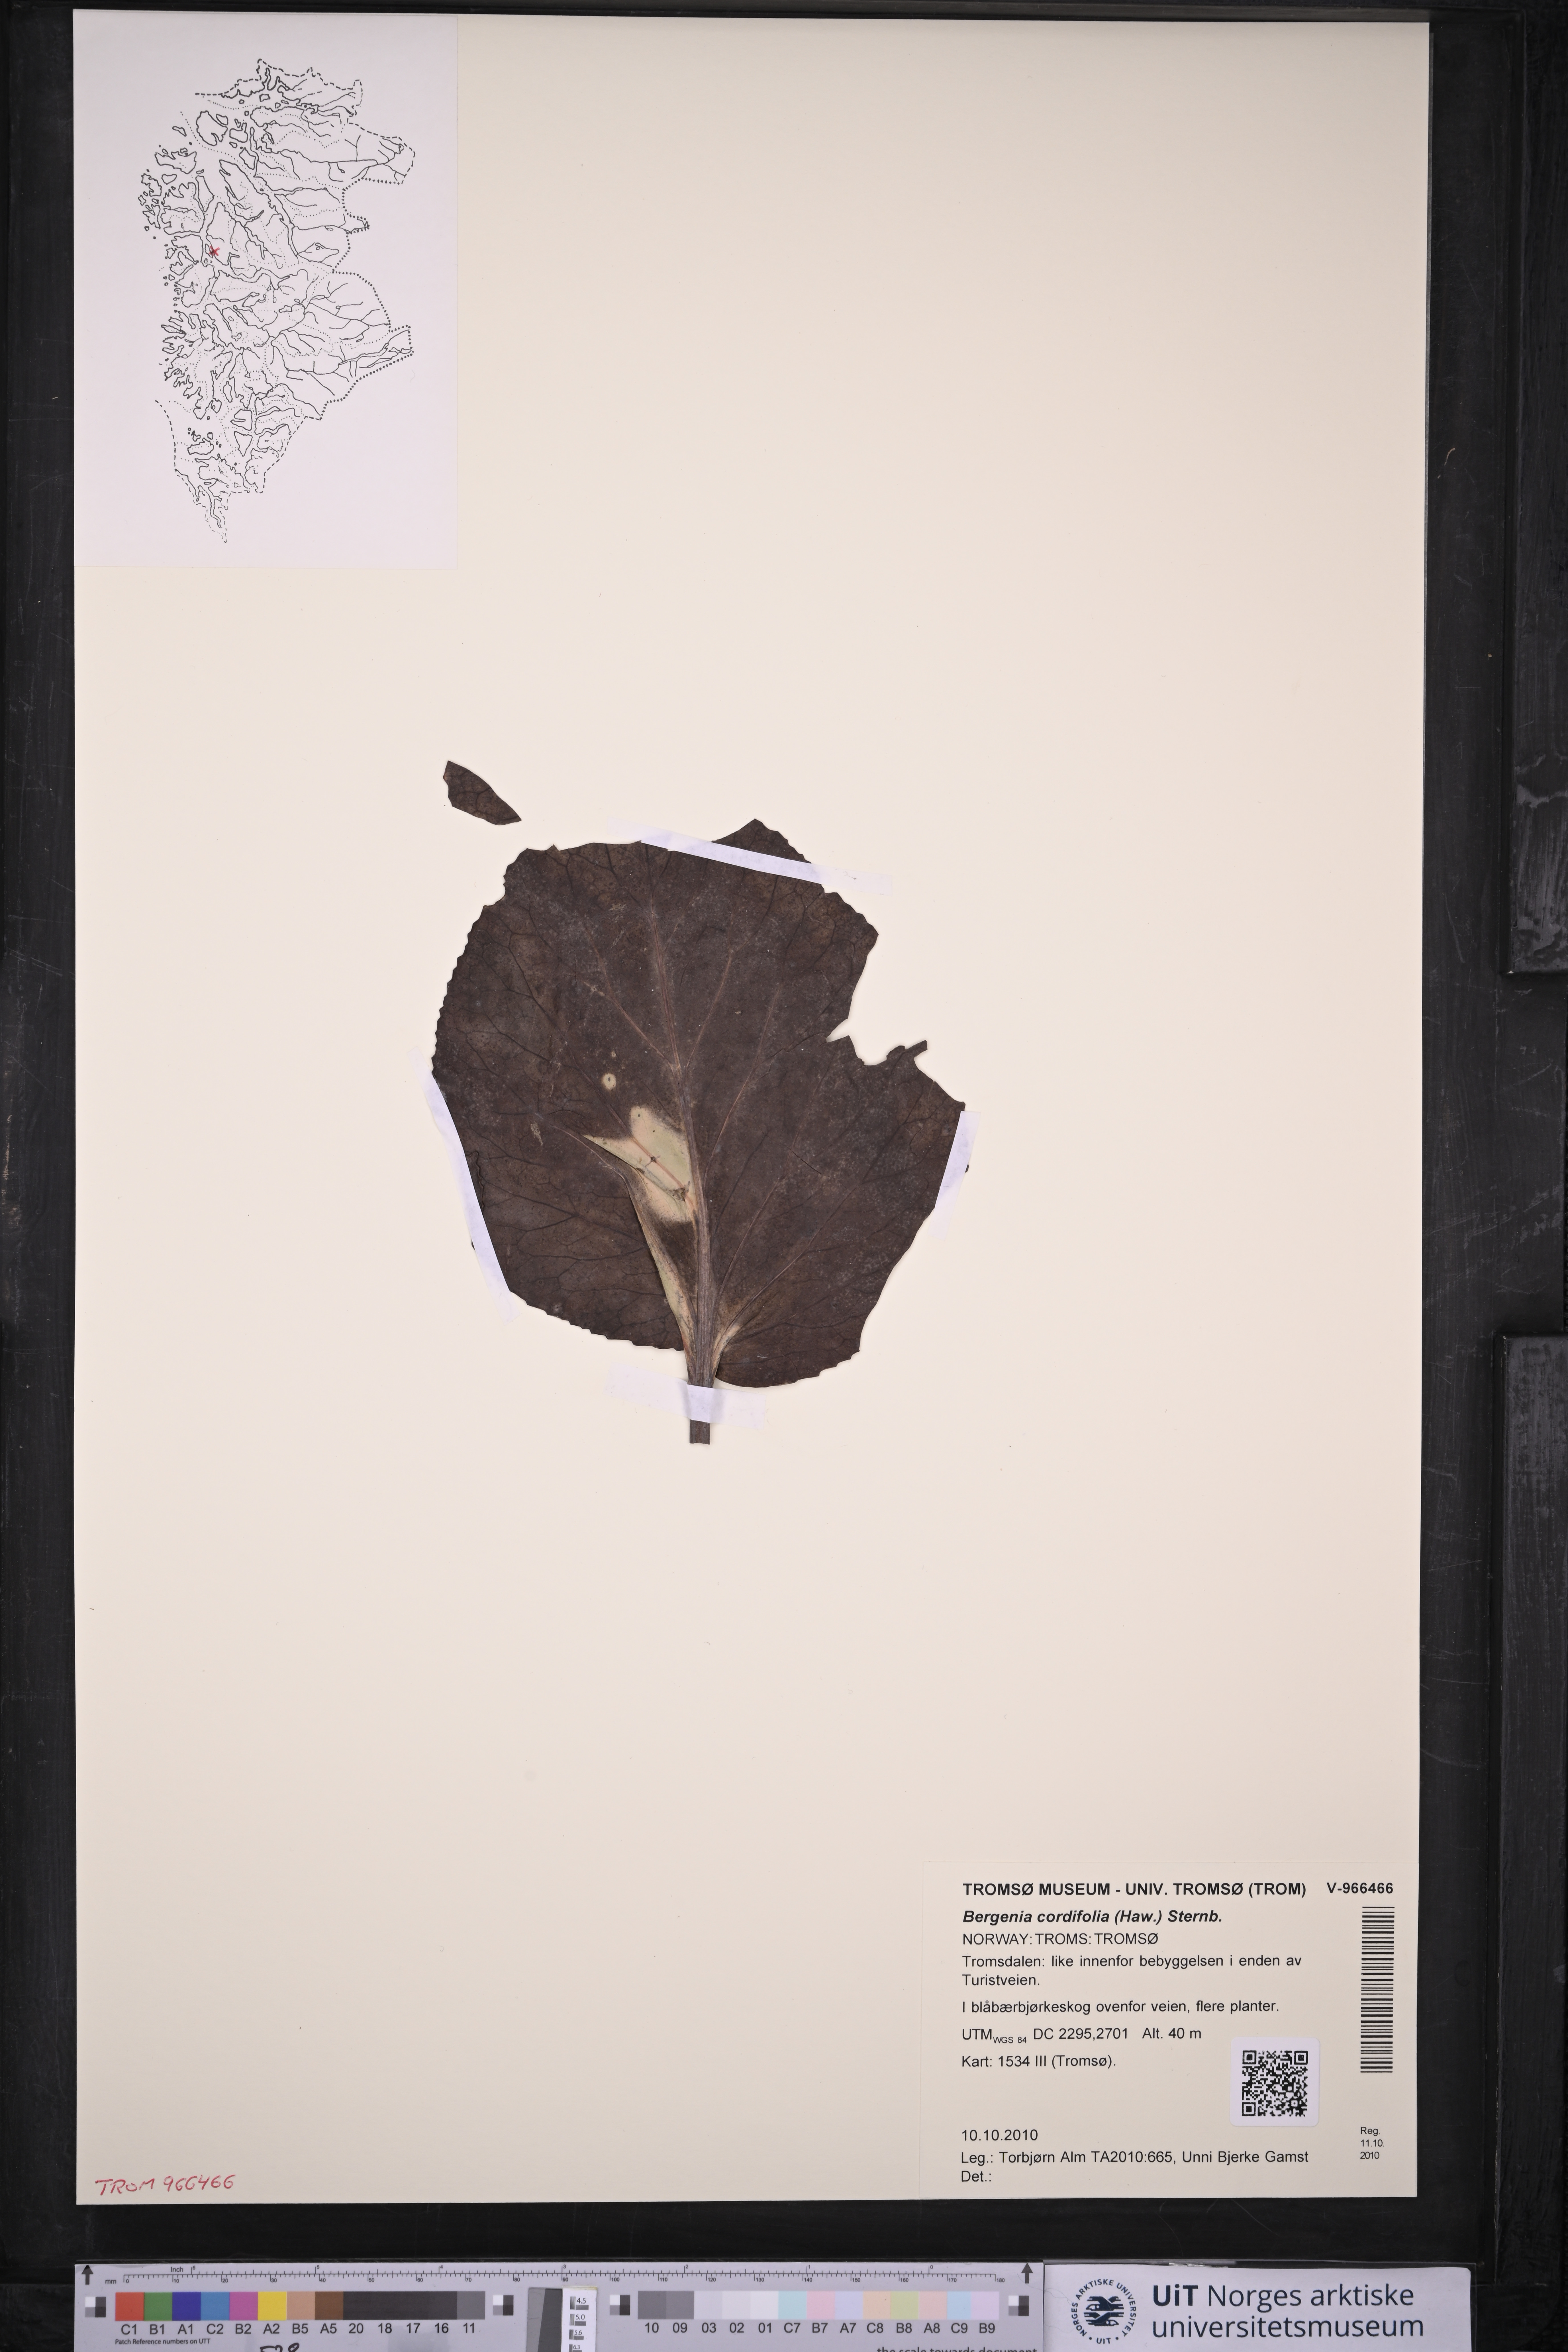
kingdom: Plantae
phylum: Tracheophyta
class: Magnoliopsida
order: Saxifragales
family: Saxifragaceae
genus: Bergenia
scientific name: Bergenia crassifolia
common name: Elephant-ears
